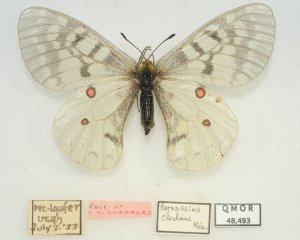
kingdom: Animalia
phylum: Arthropoda
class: Insecta
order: Lepidoptera
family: Papilionidae
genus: Parnassius
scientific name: Parnassius clodius
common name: Clodius Parnassian
